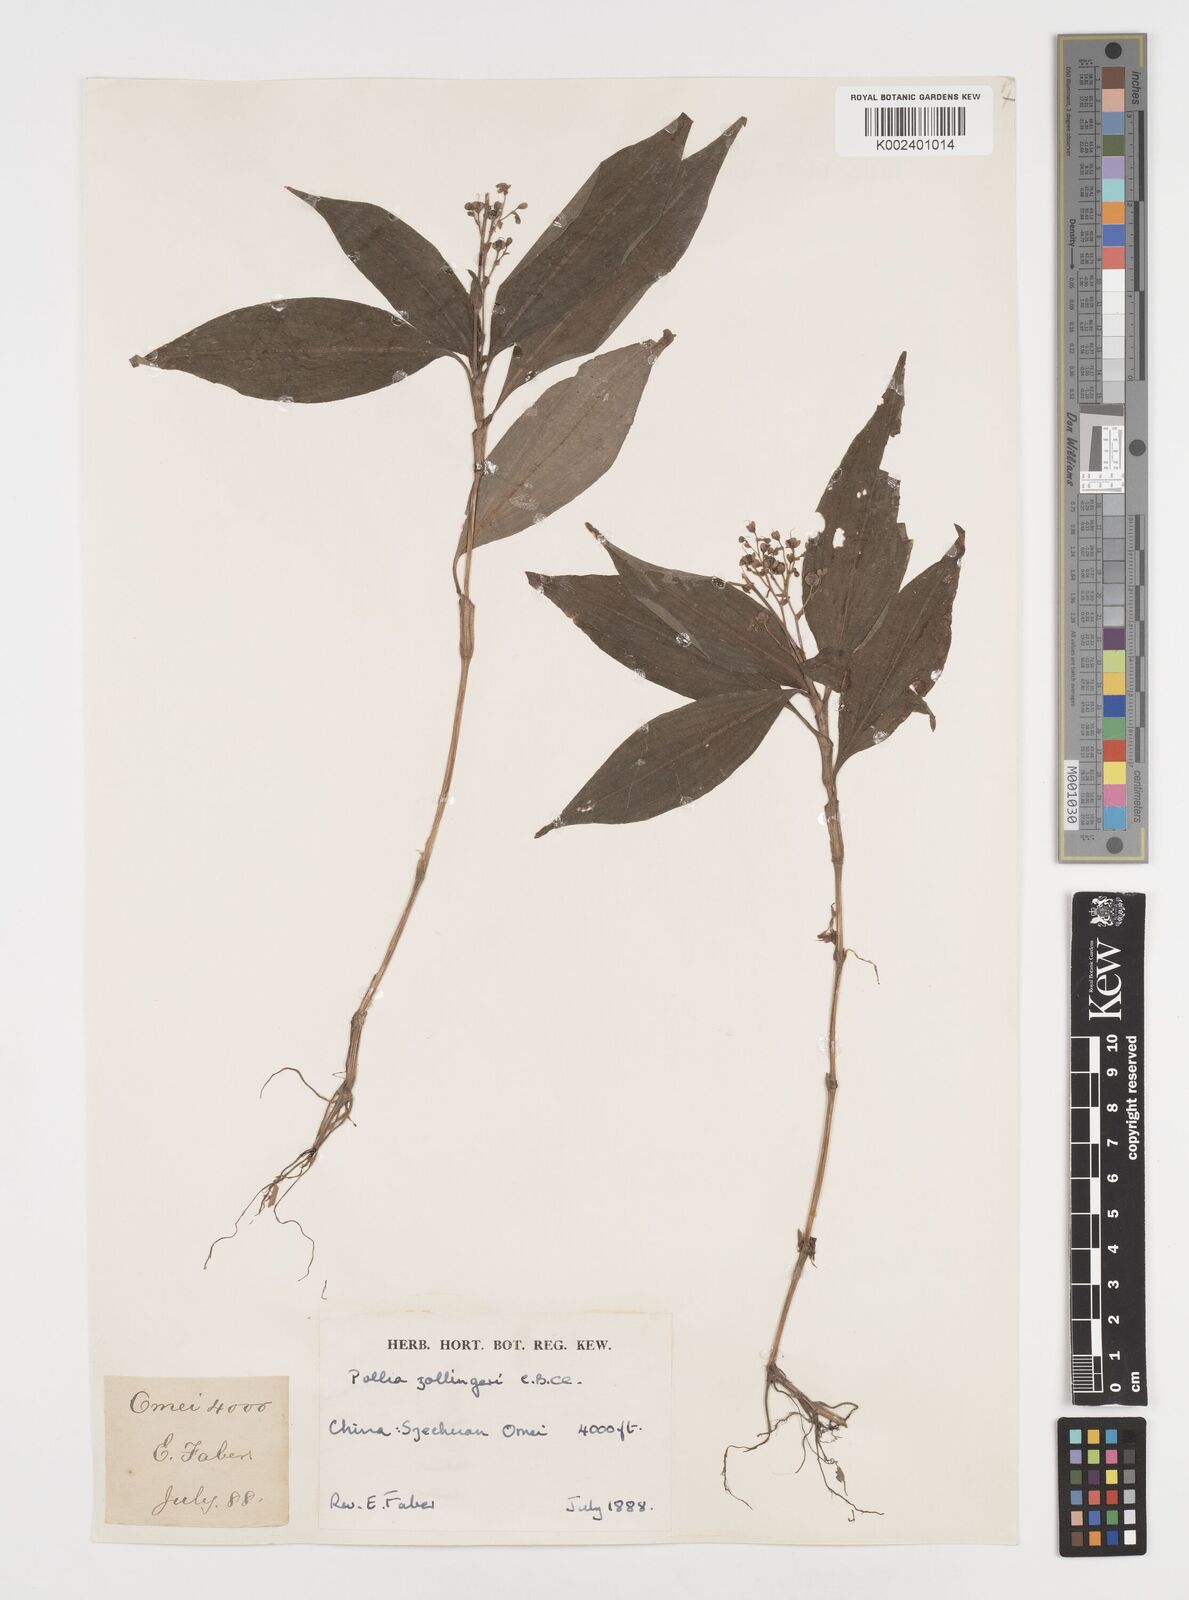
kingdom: Plantae
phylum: Tracheophyta
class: Liliopsida
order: Commelinales
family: Commelinaceae
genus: Pollia
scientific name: Pollia zollingeri
